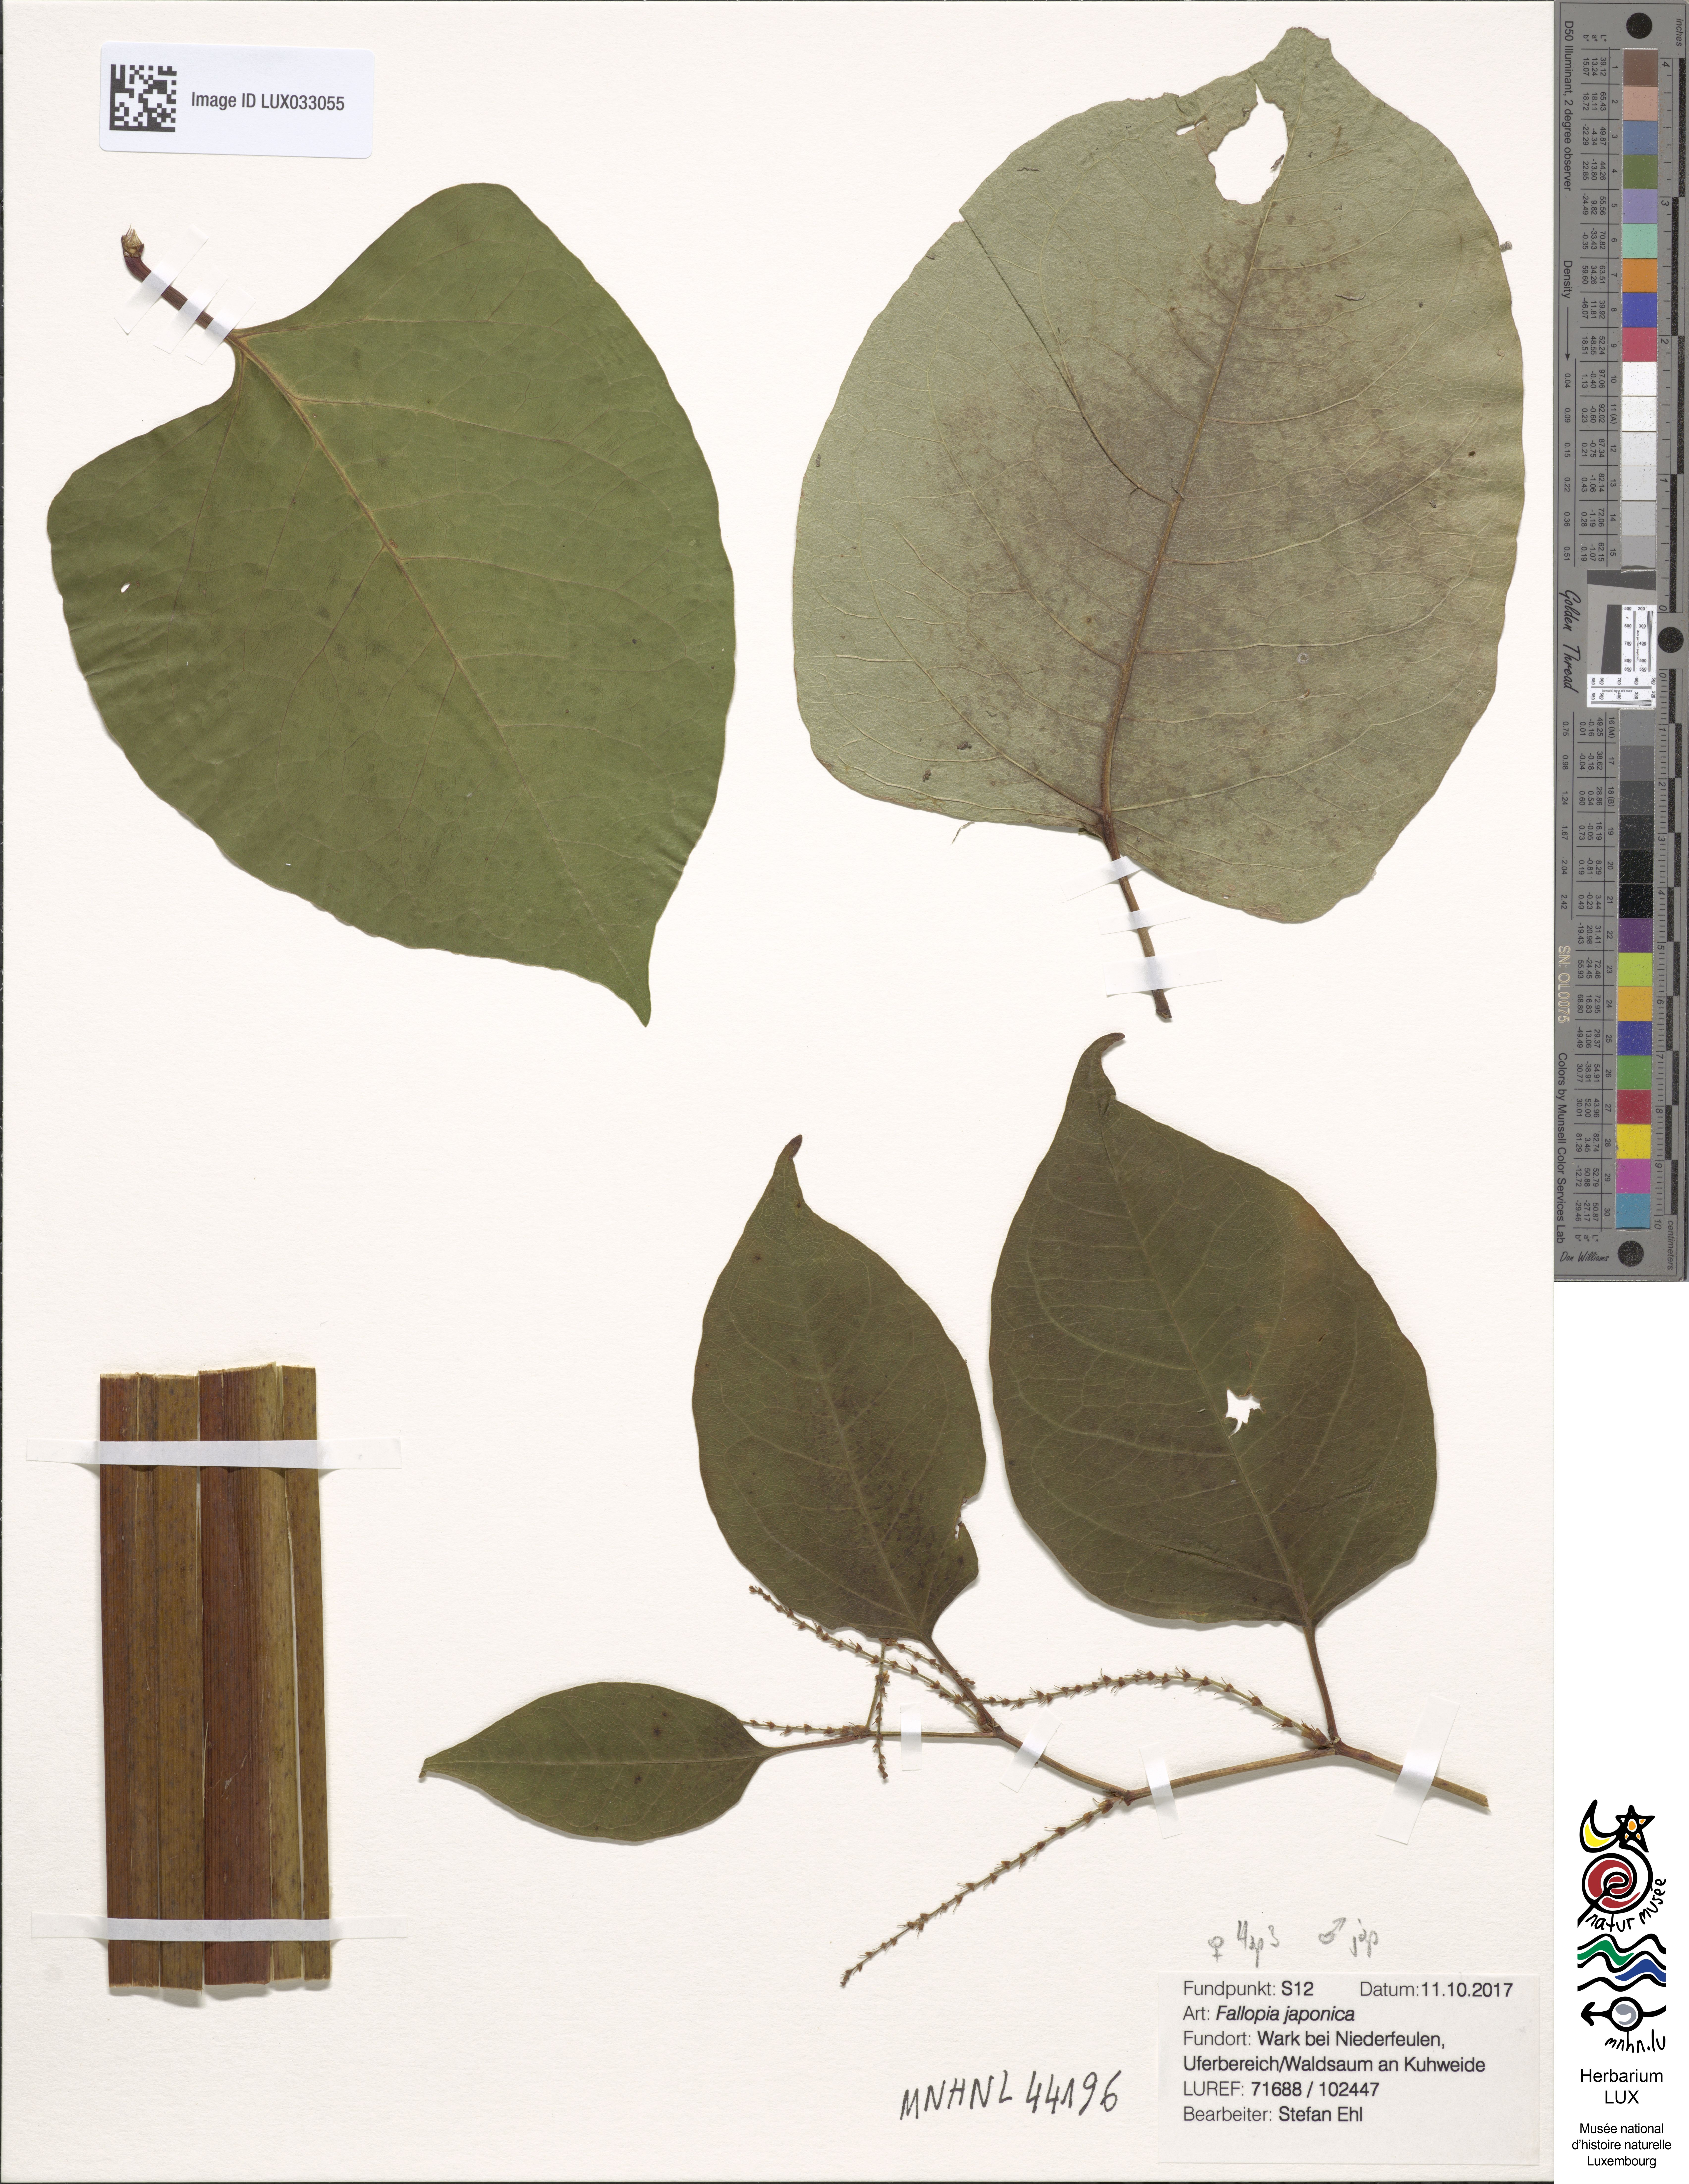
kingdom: Plantae
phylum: Tracheophyta
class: Magnoliopsida
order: Caryophyllales
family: Polygonaceae
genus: Reynoutria
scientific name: Reynoutria japonica
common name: Japanese knotweed
